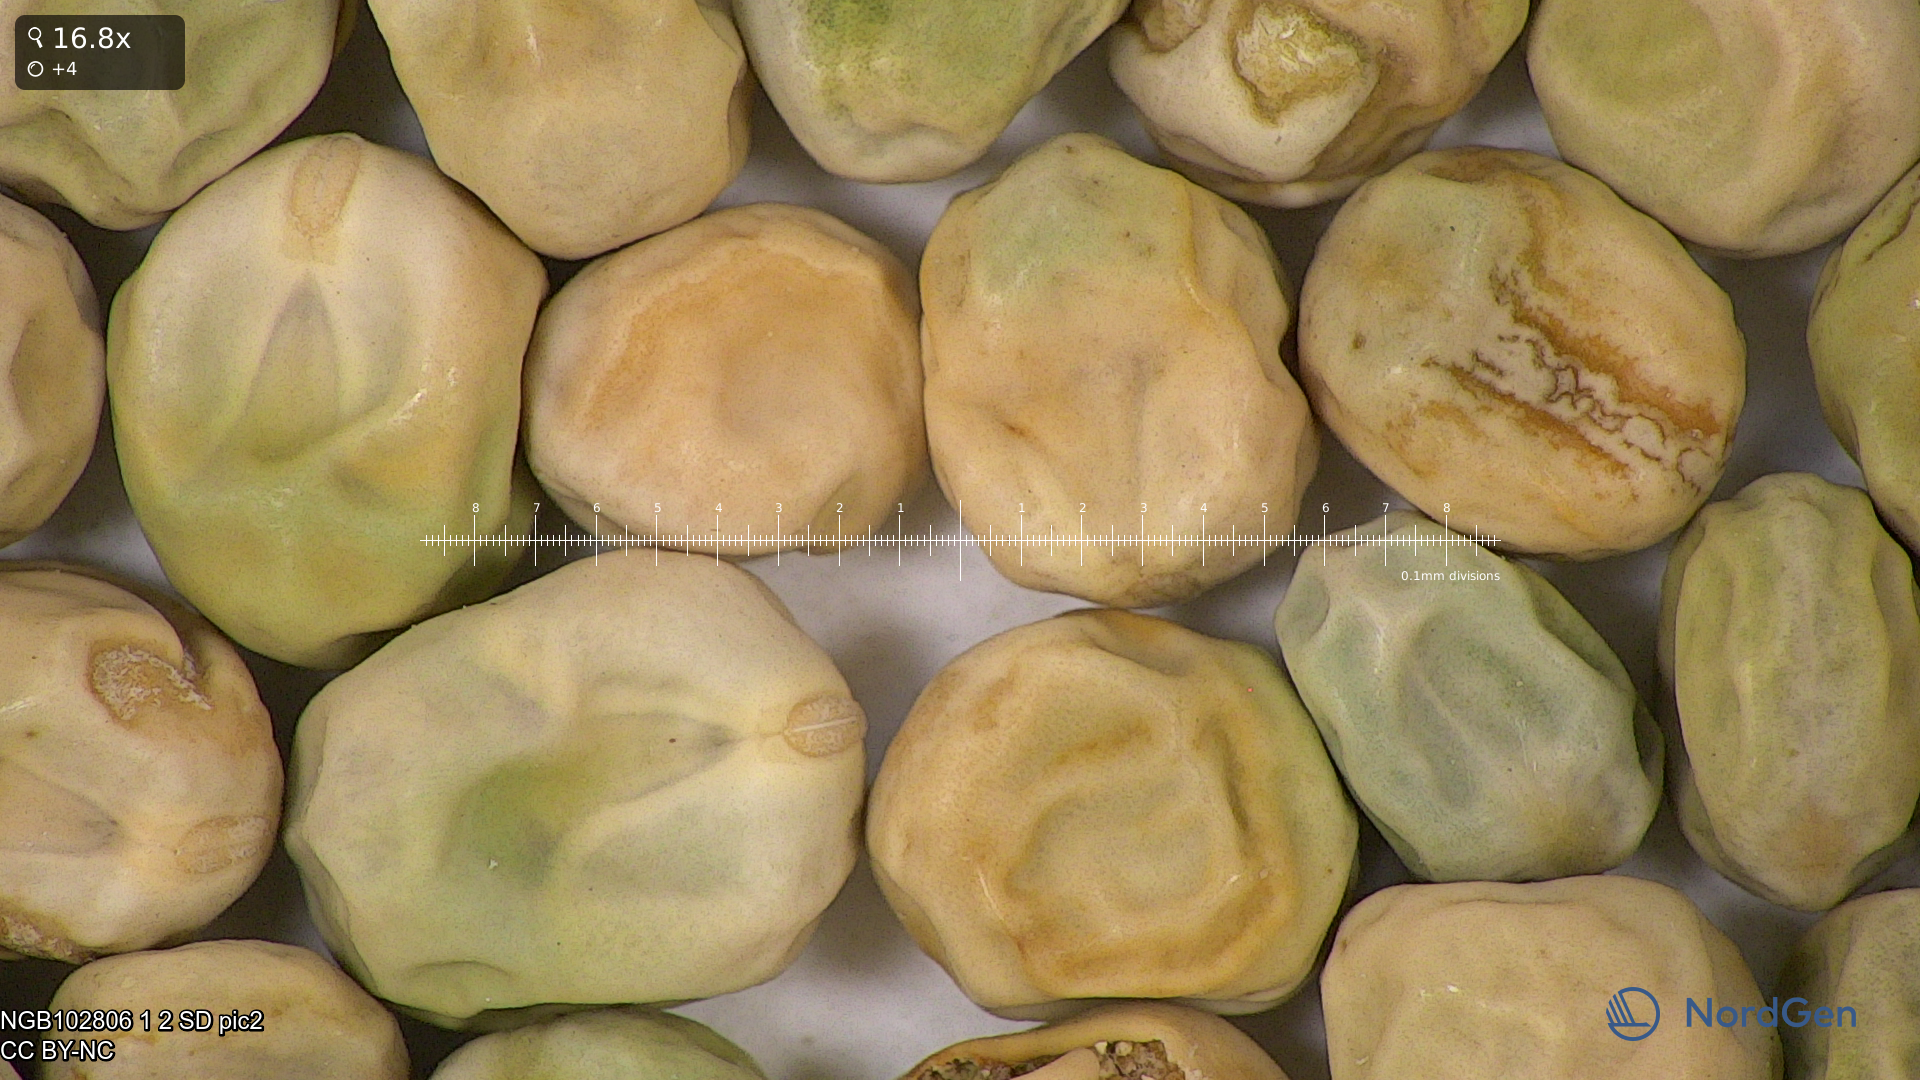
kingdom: Plantae
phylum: Tracheophyta
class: Magnoliopsida
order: Fabales
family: Fabaceae
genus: Lathyrus
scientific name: Lathyrus oleraceus
